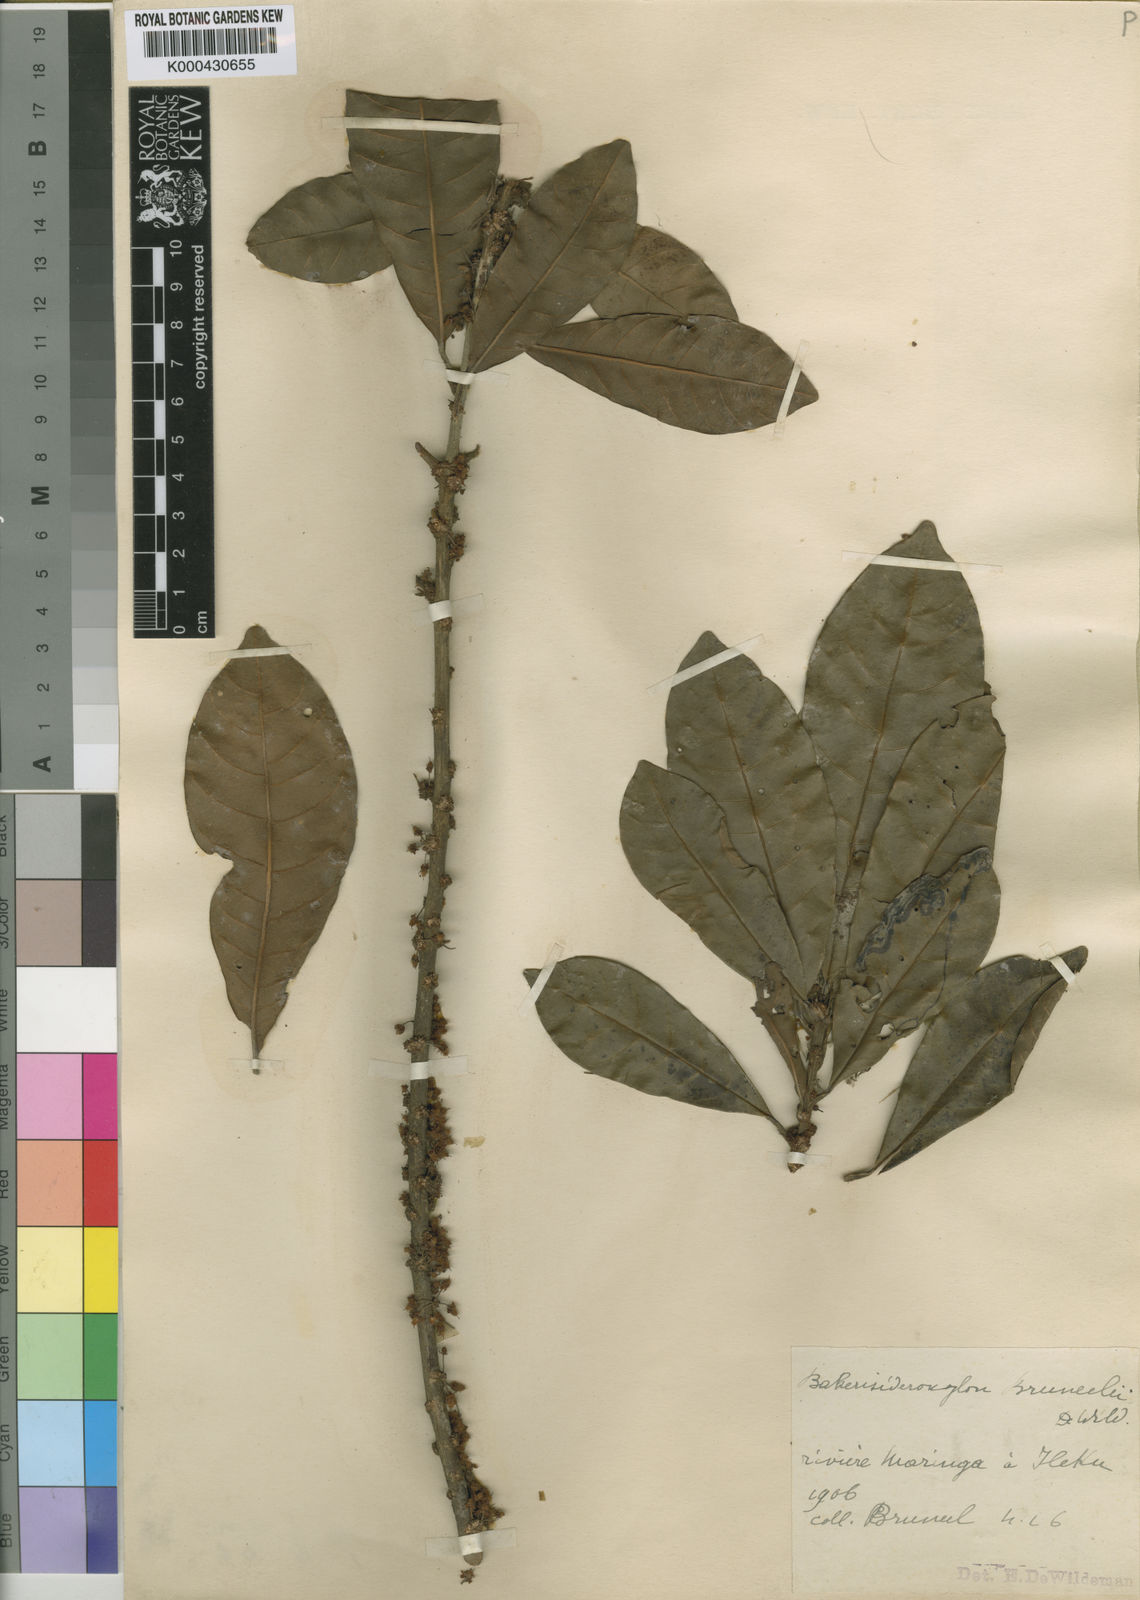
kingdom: Plantae
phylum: Tracheophyta
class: Magnoliopsida
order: Ericales
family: Sapotaceae
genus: Synsepalum
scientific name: Synsepalum revolutum
